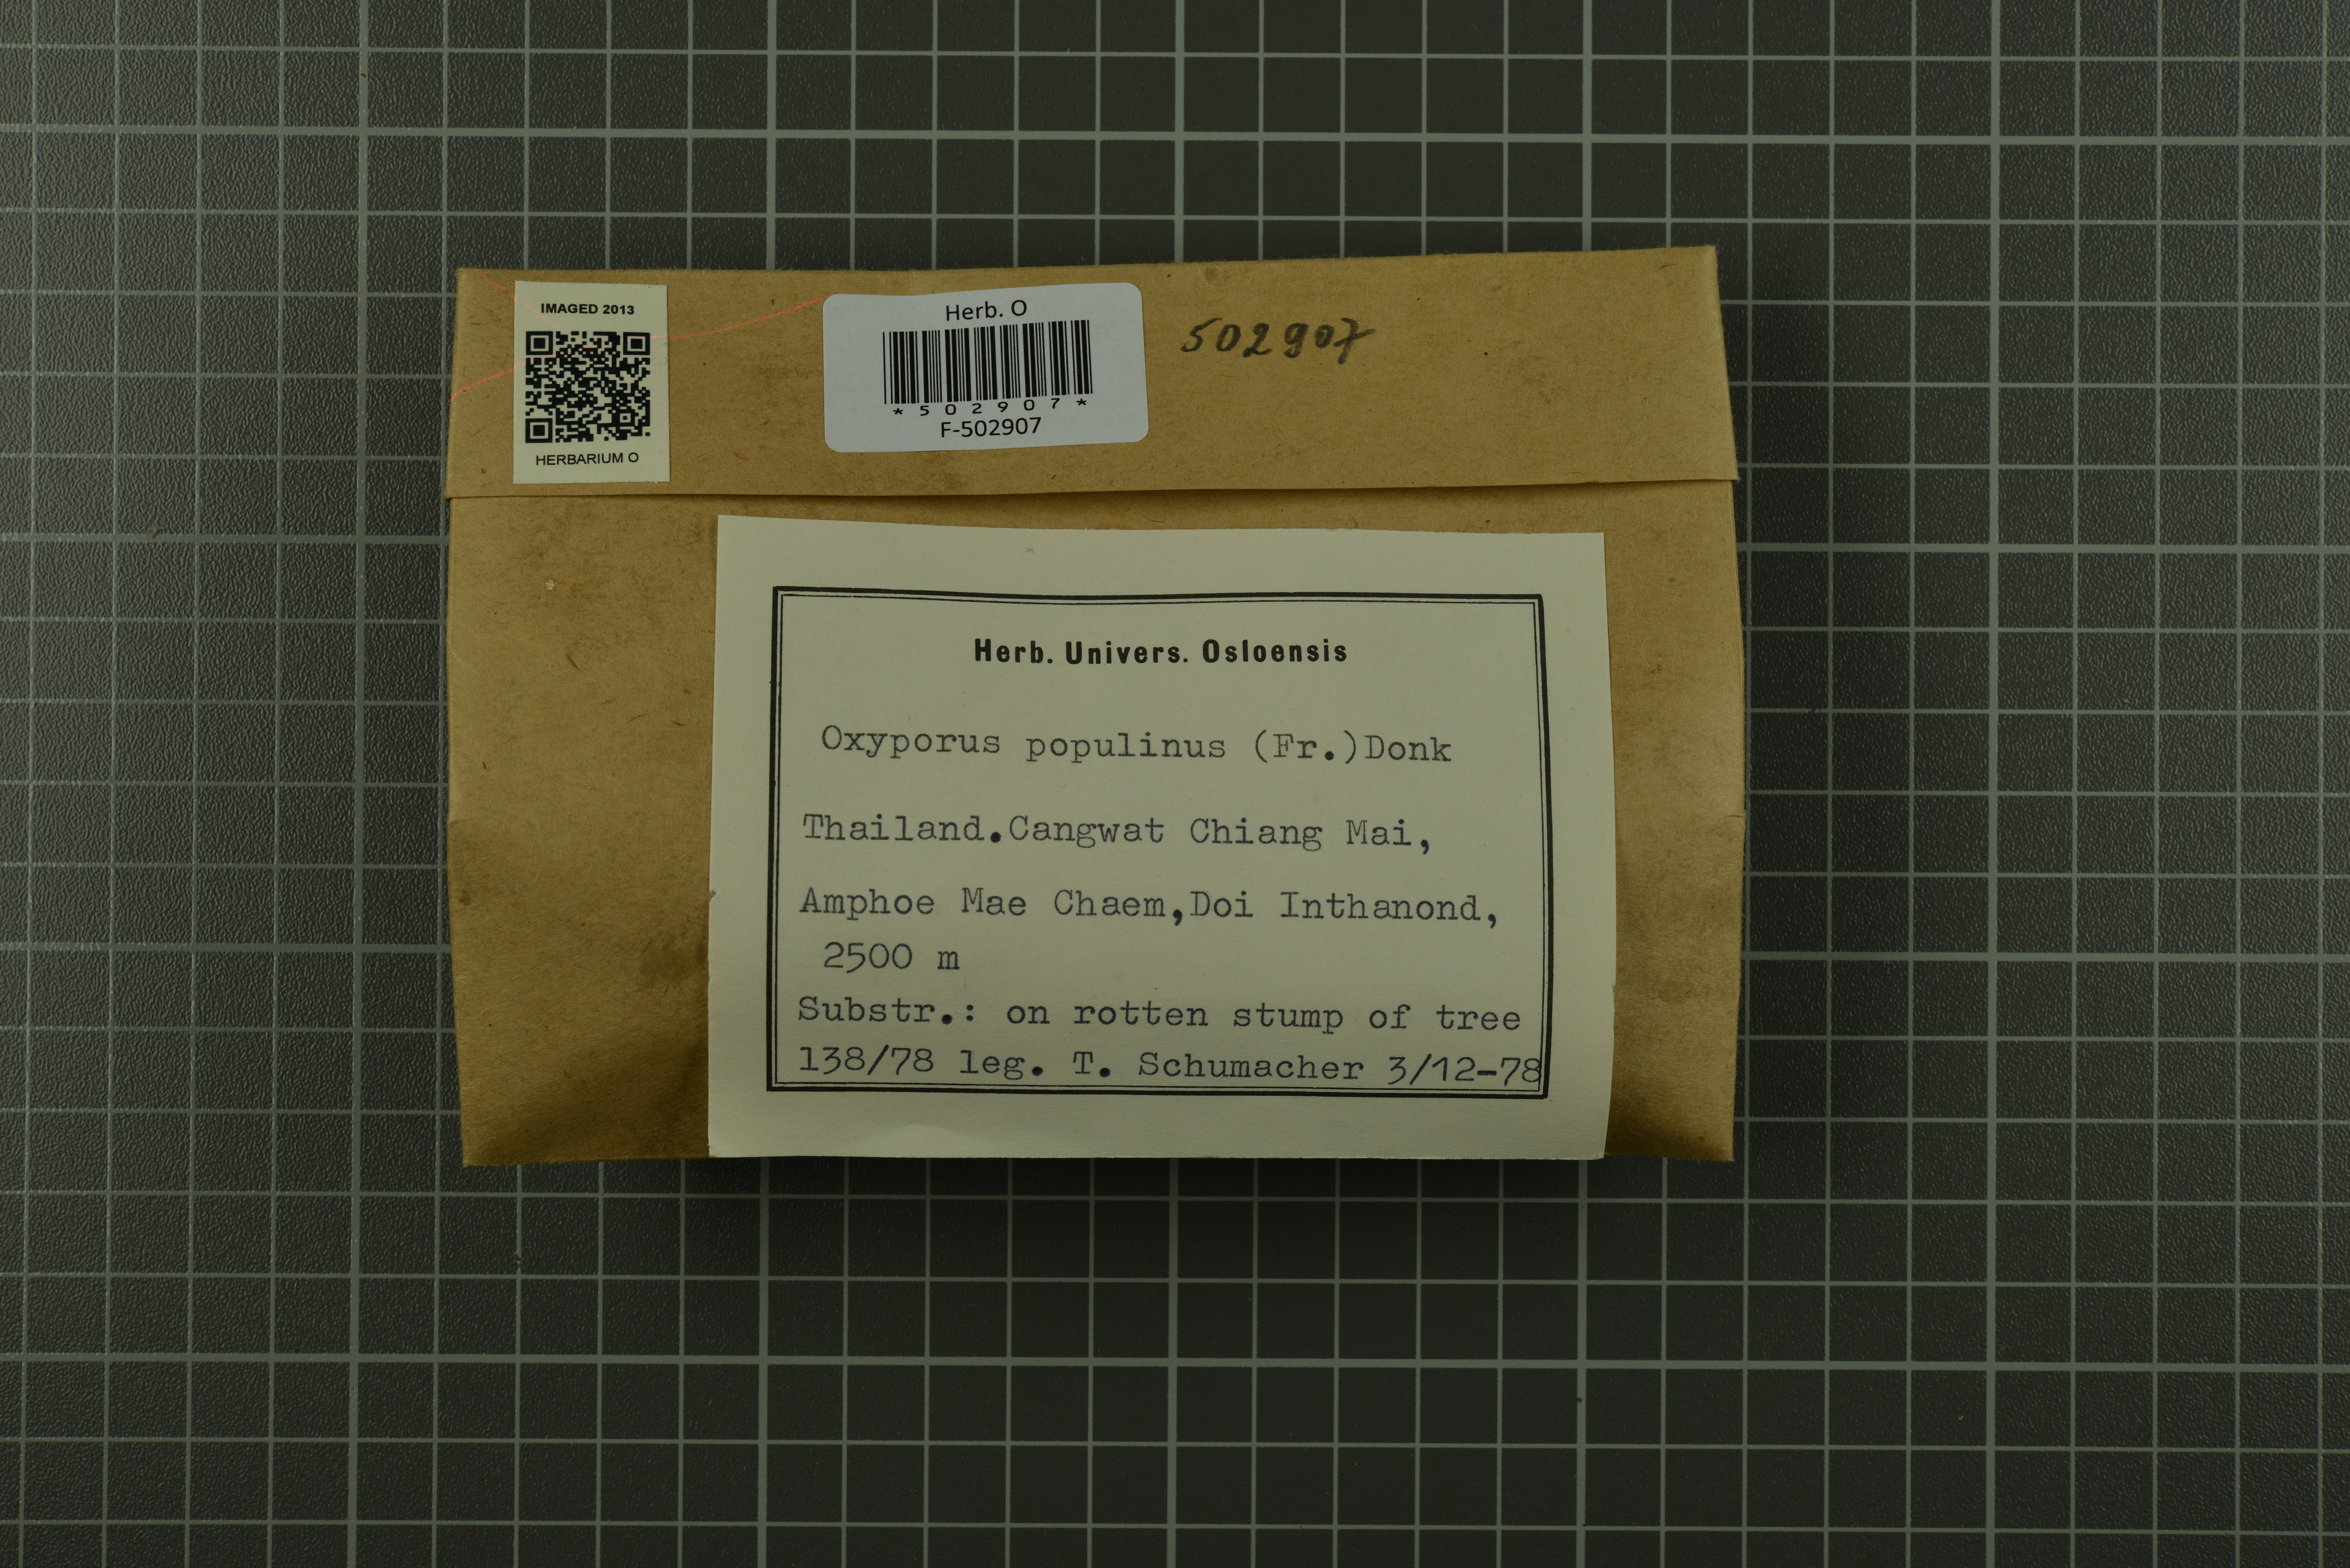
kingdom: Fungi
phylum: Basidiomycota
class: Agaricomycetes
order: Hymenochaetales
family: Oxyporaceae
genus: Oxyporus
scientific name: Oxyporus populinus
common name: Poplar bracket
